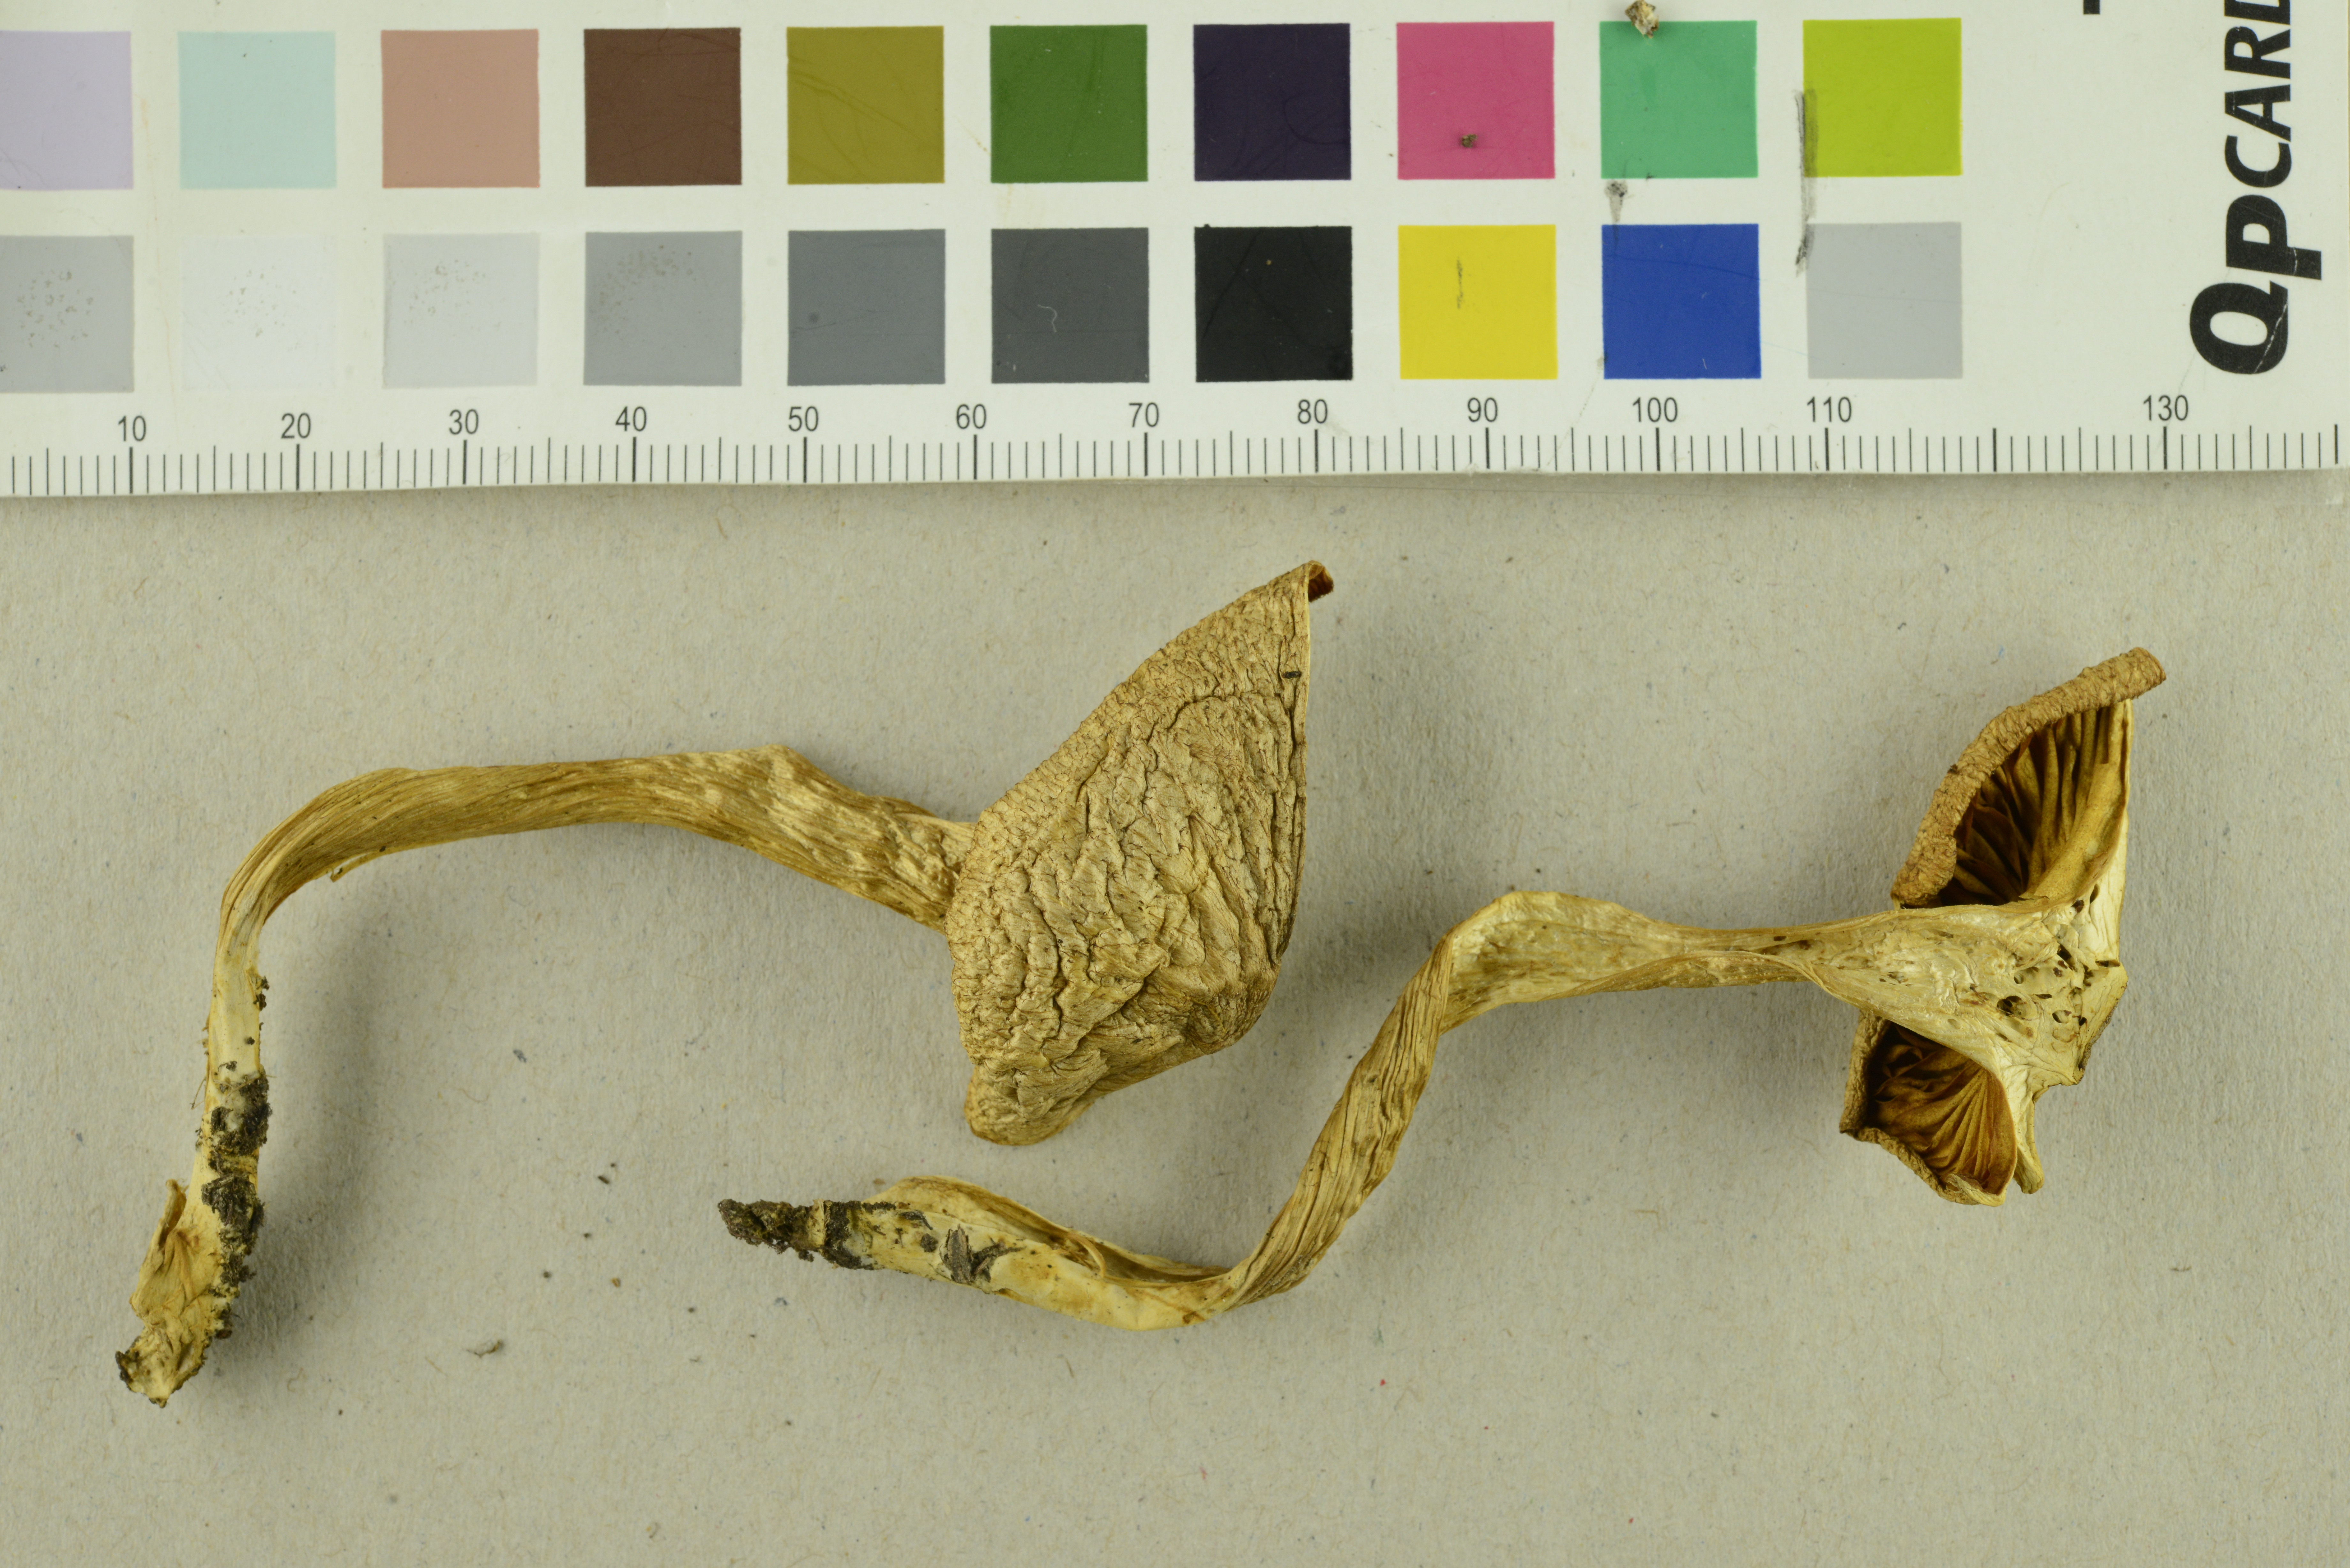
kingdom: Fungi
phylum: Basidiomycota
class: Agaricomycetes
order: Agaricales
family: Tricholomataceae
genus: Tricholomopsis
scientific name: Tricholomopsis decora
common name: Prunes and custard
